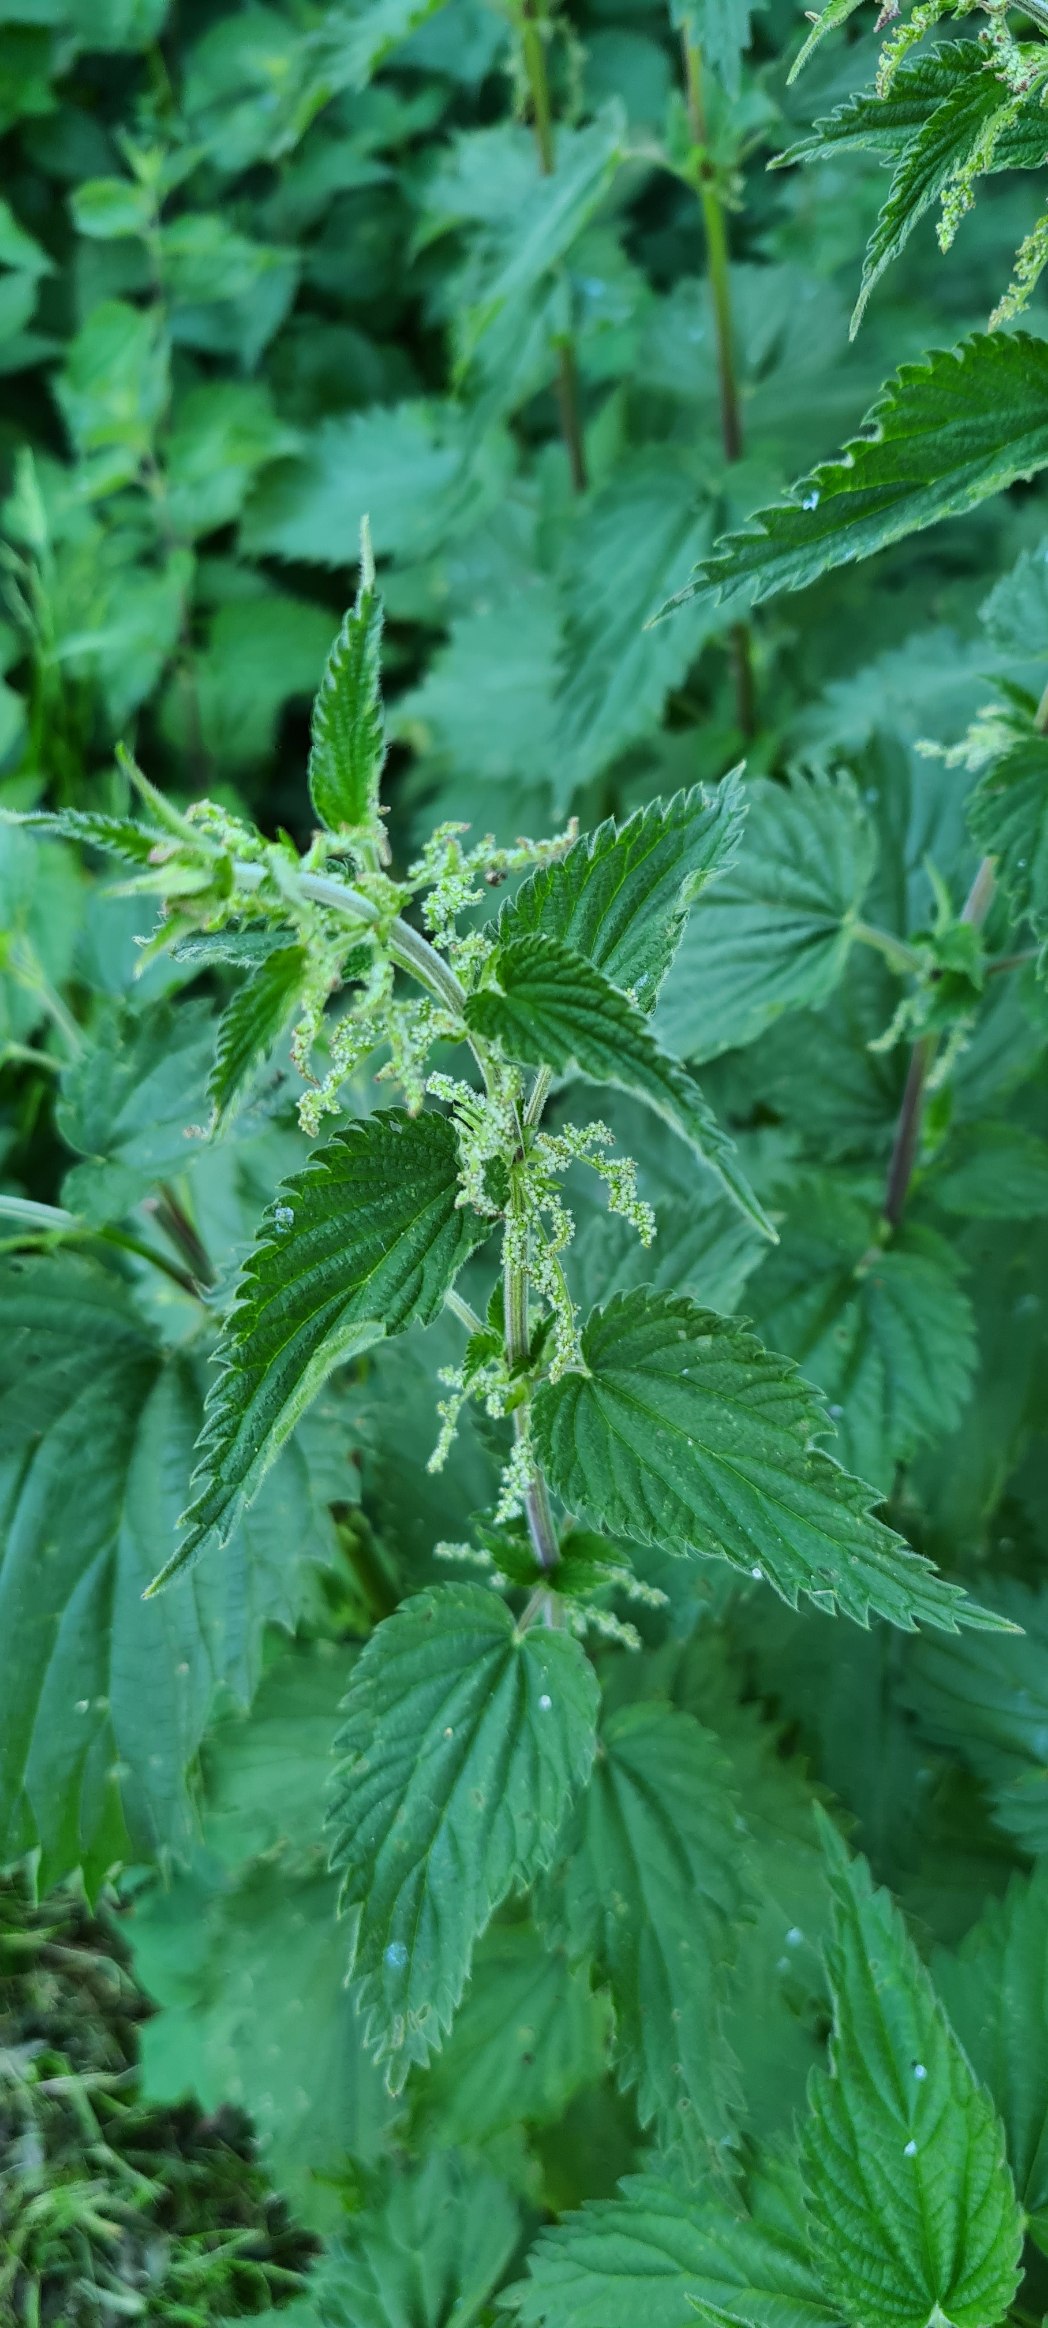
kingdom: Plantae
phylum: Tracheophyta
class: Magnoliopsida
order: Rosales
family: Urticaceae
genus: Urtica
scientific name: Urtica dioica
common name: Stor nælde
